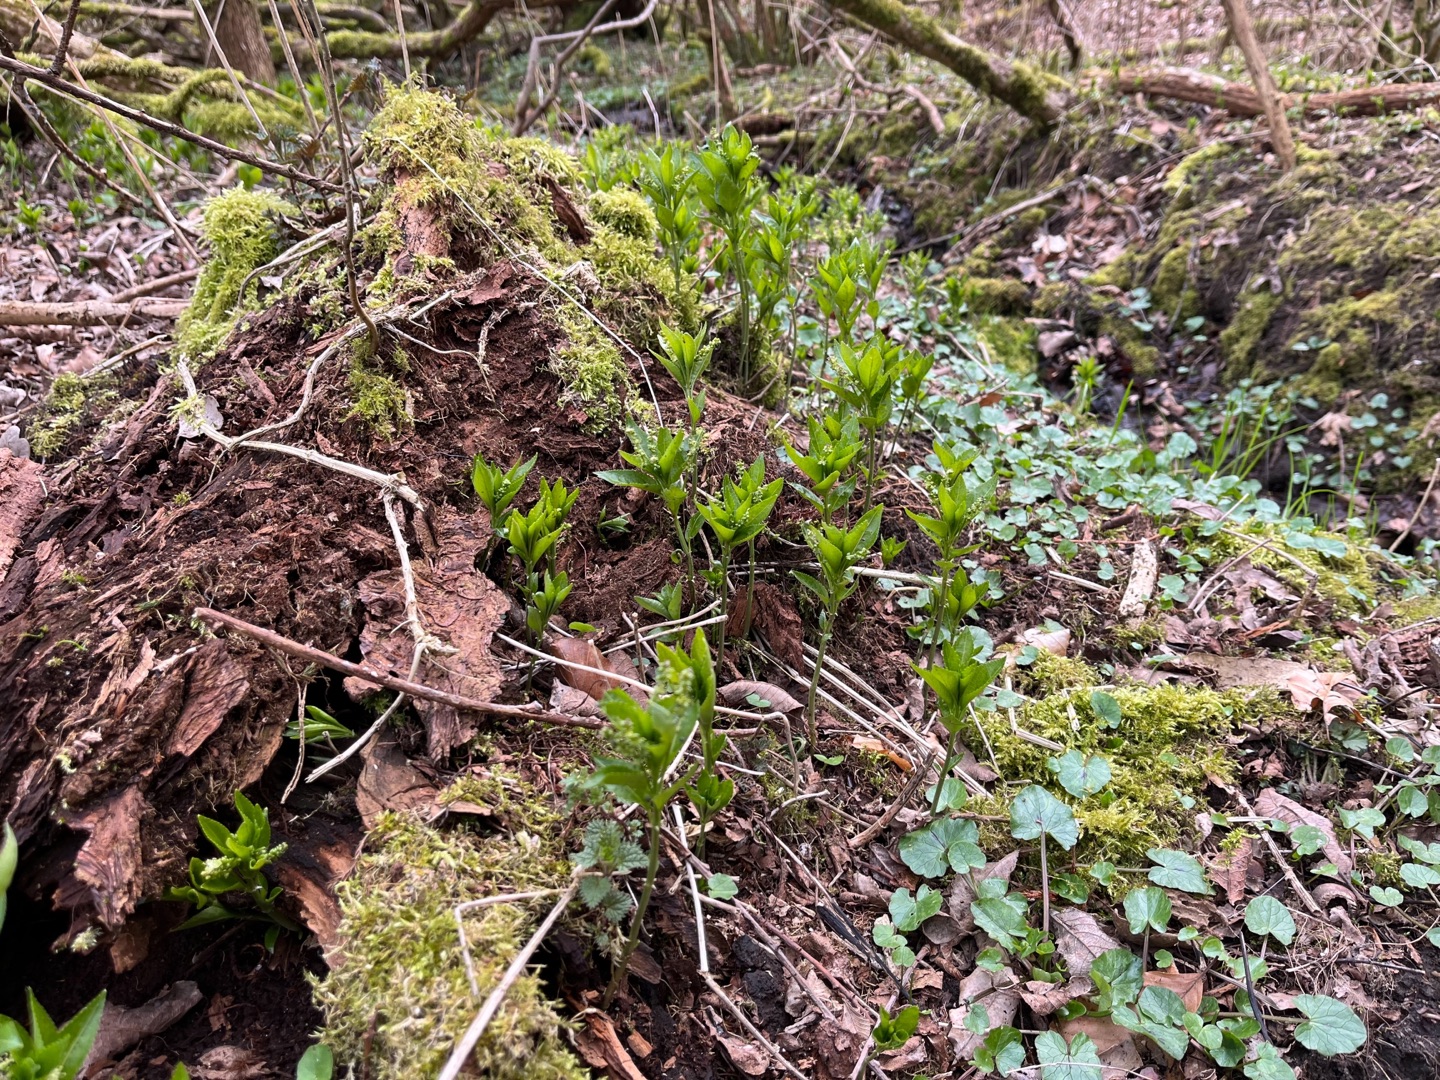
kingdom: Plantae
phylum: Tracheophyta
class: Magnoliopsida
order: Malpighiales
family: Euphorbiaceae
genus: Mercurialis
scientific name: Mercurialis perennis
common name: Almindelig bingelurt
